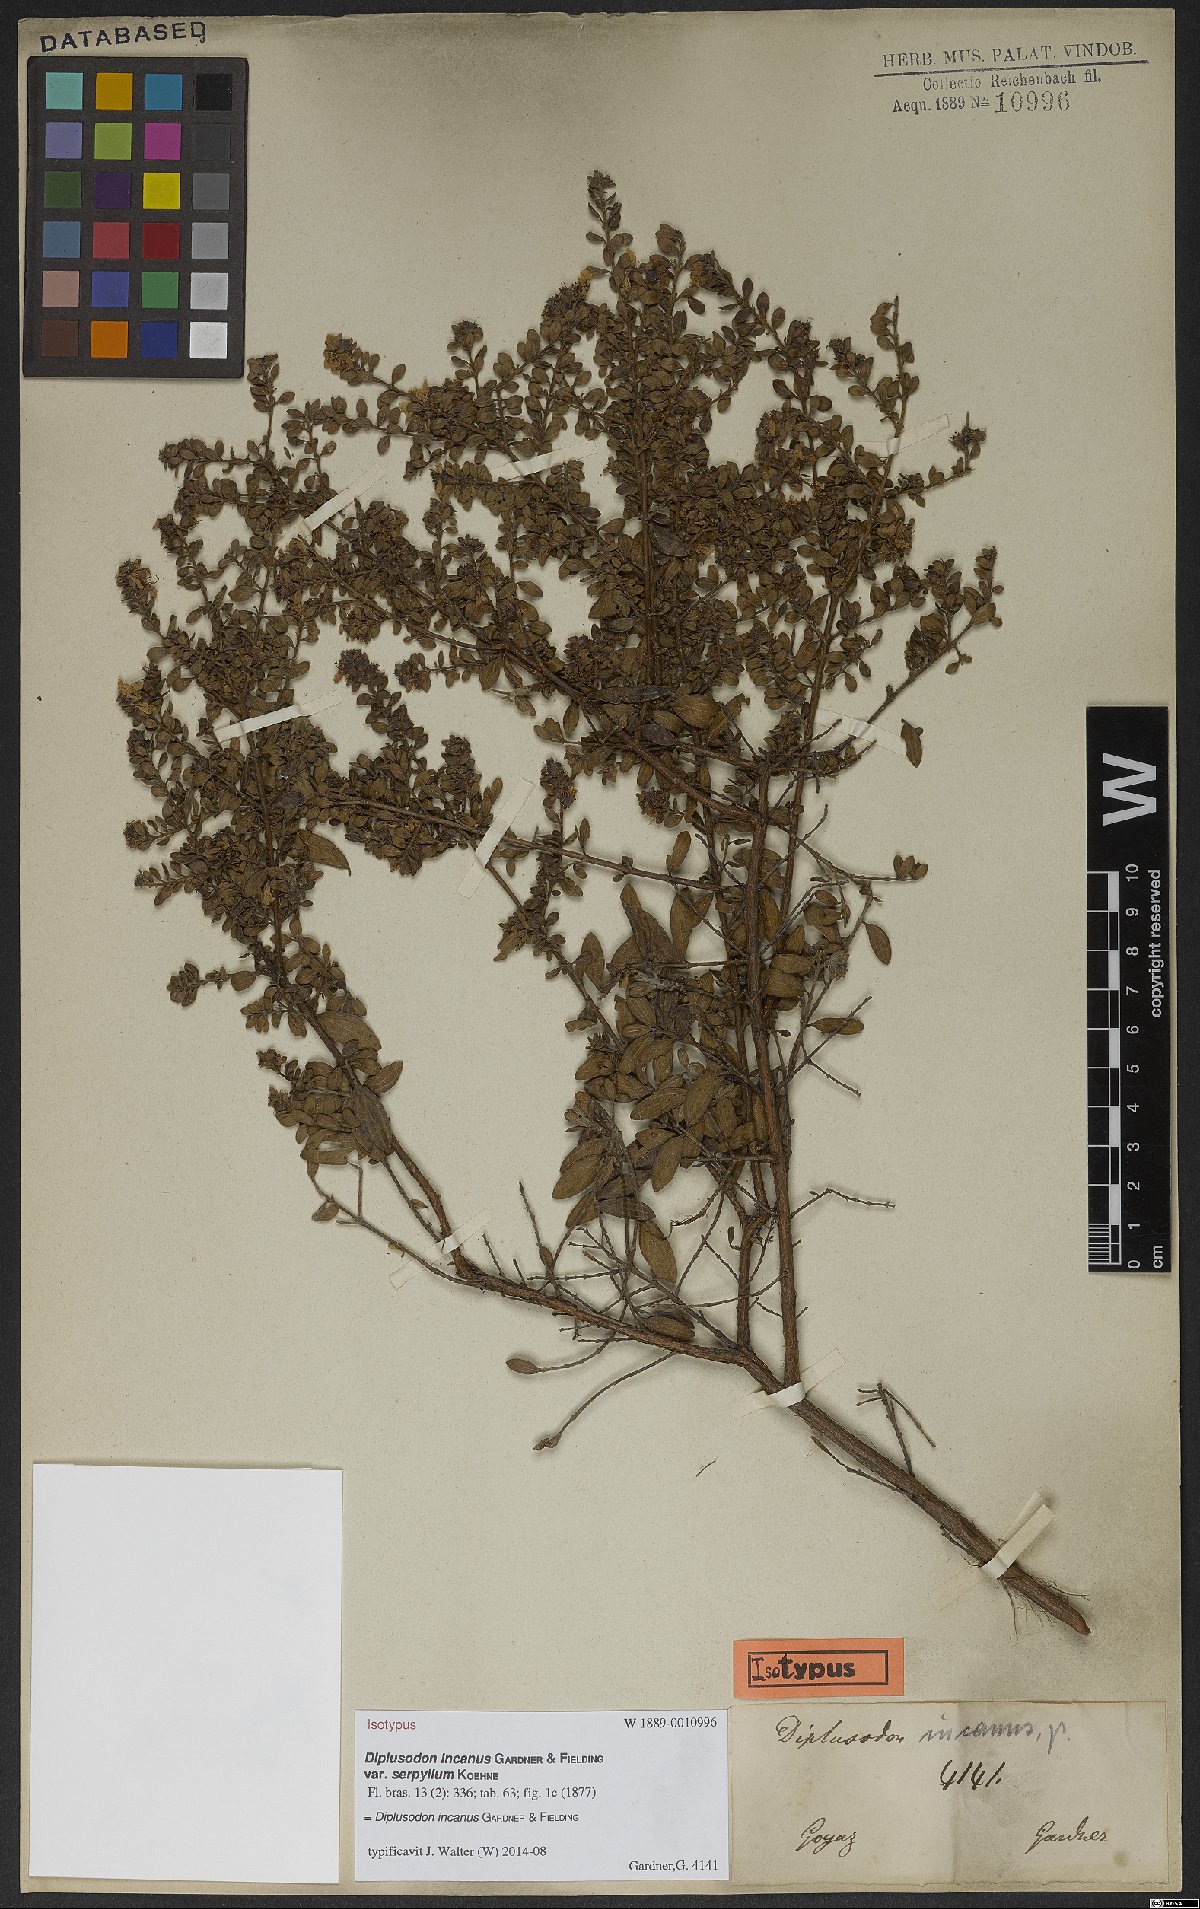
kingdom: Plantae
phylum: Tracheophyta
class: Magnoliopsida
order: Myrtales
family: Lythraceae
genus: Diplusodon
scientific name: Diplusodon incanus
